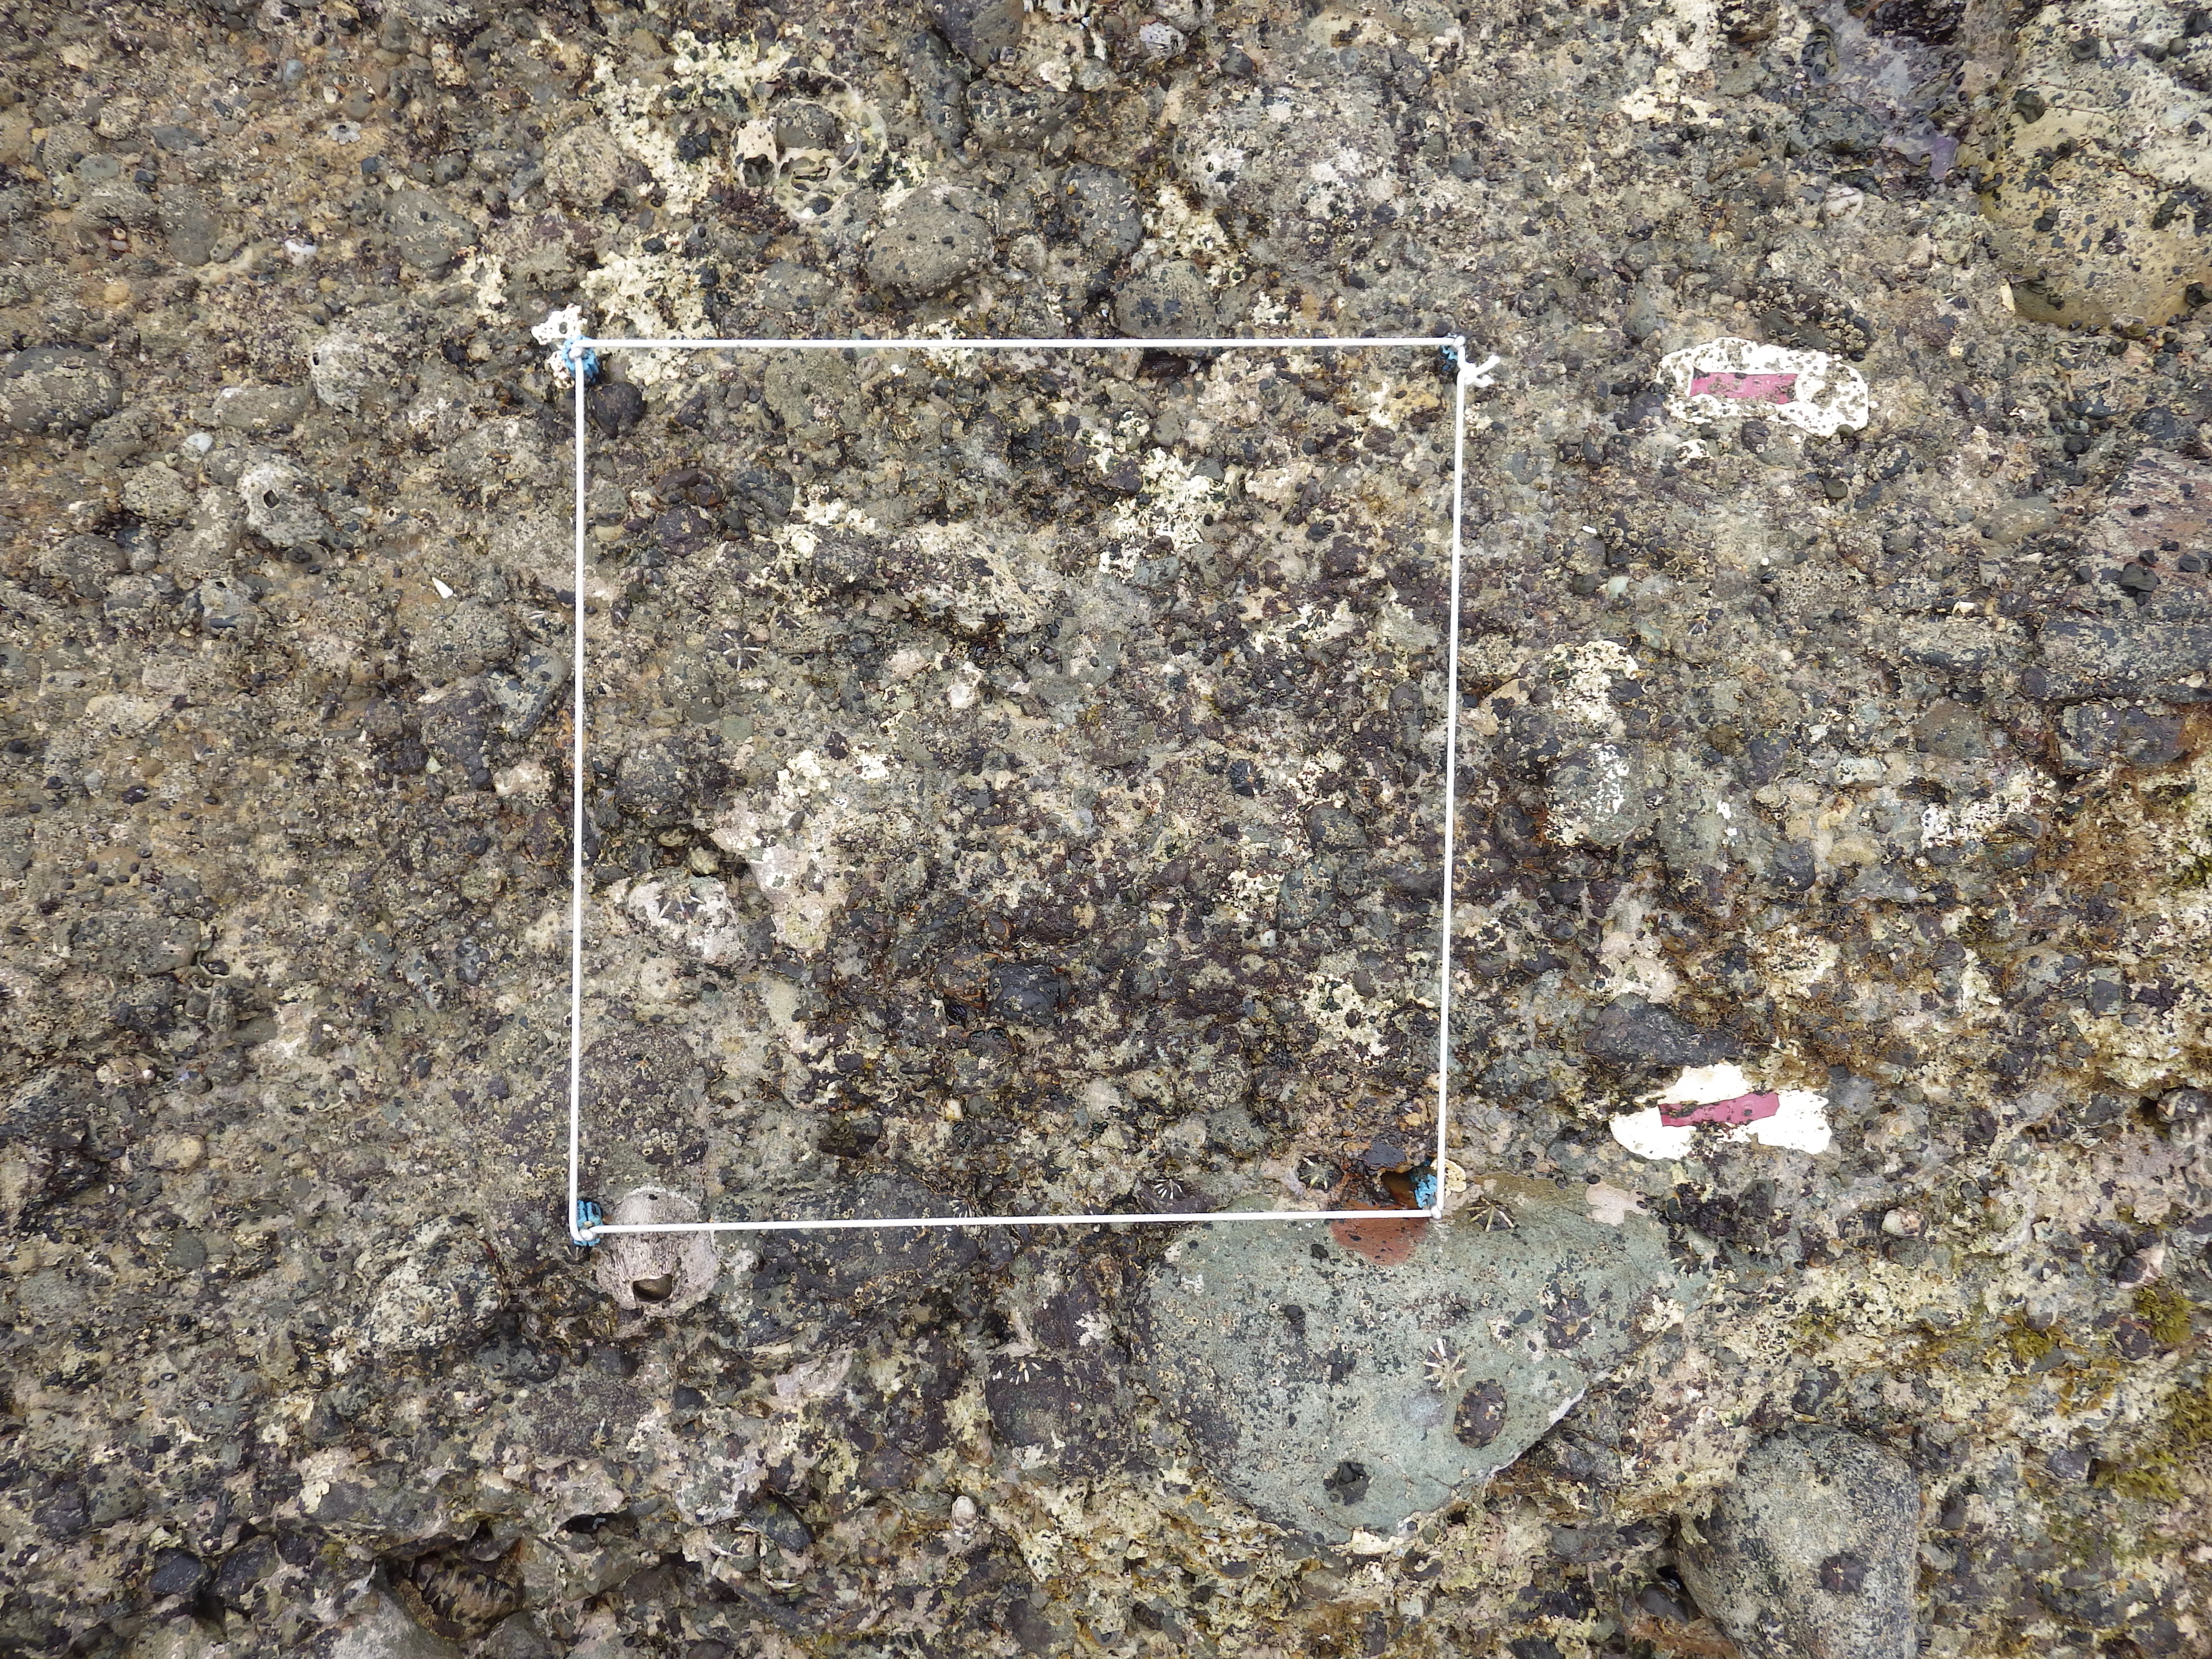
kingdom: Animalia
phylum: Arthropoda
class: Maxillopoda
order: Sessilia
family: Chthamalidae
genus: Chthamalus
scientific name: Chthamalus challengeri
